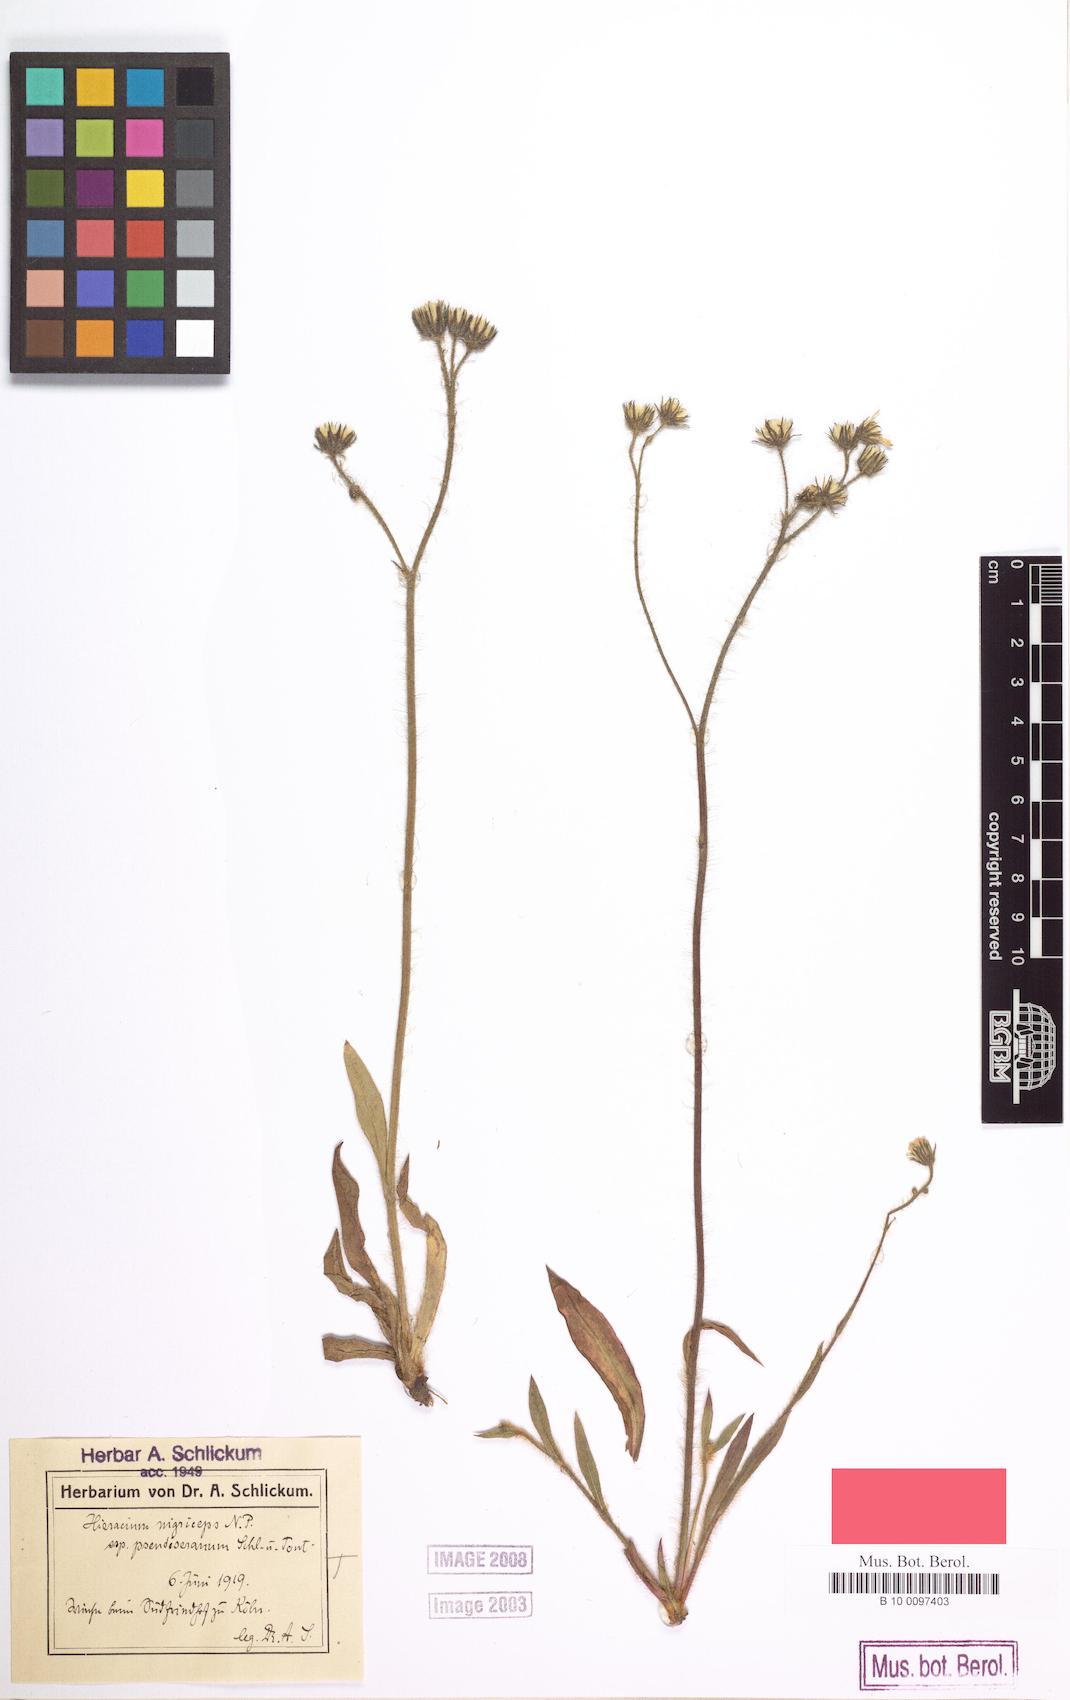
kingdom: Plantae
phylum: Tracheophyta
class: Magnoliopsida
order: Asterales
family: Asteraceae
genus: Pilosella
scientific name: Pilosella iserana
